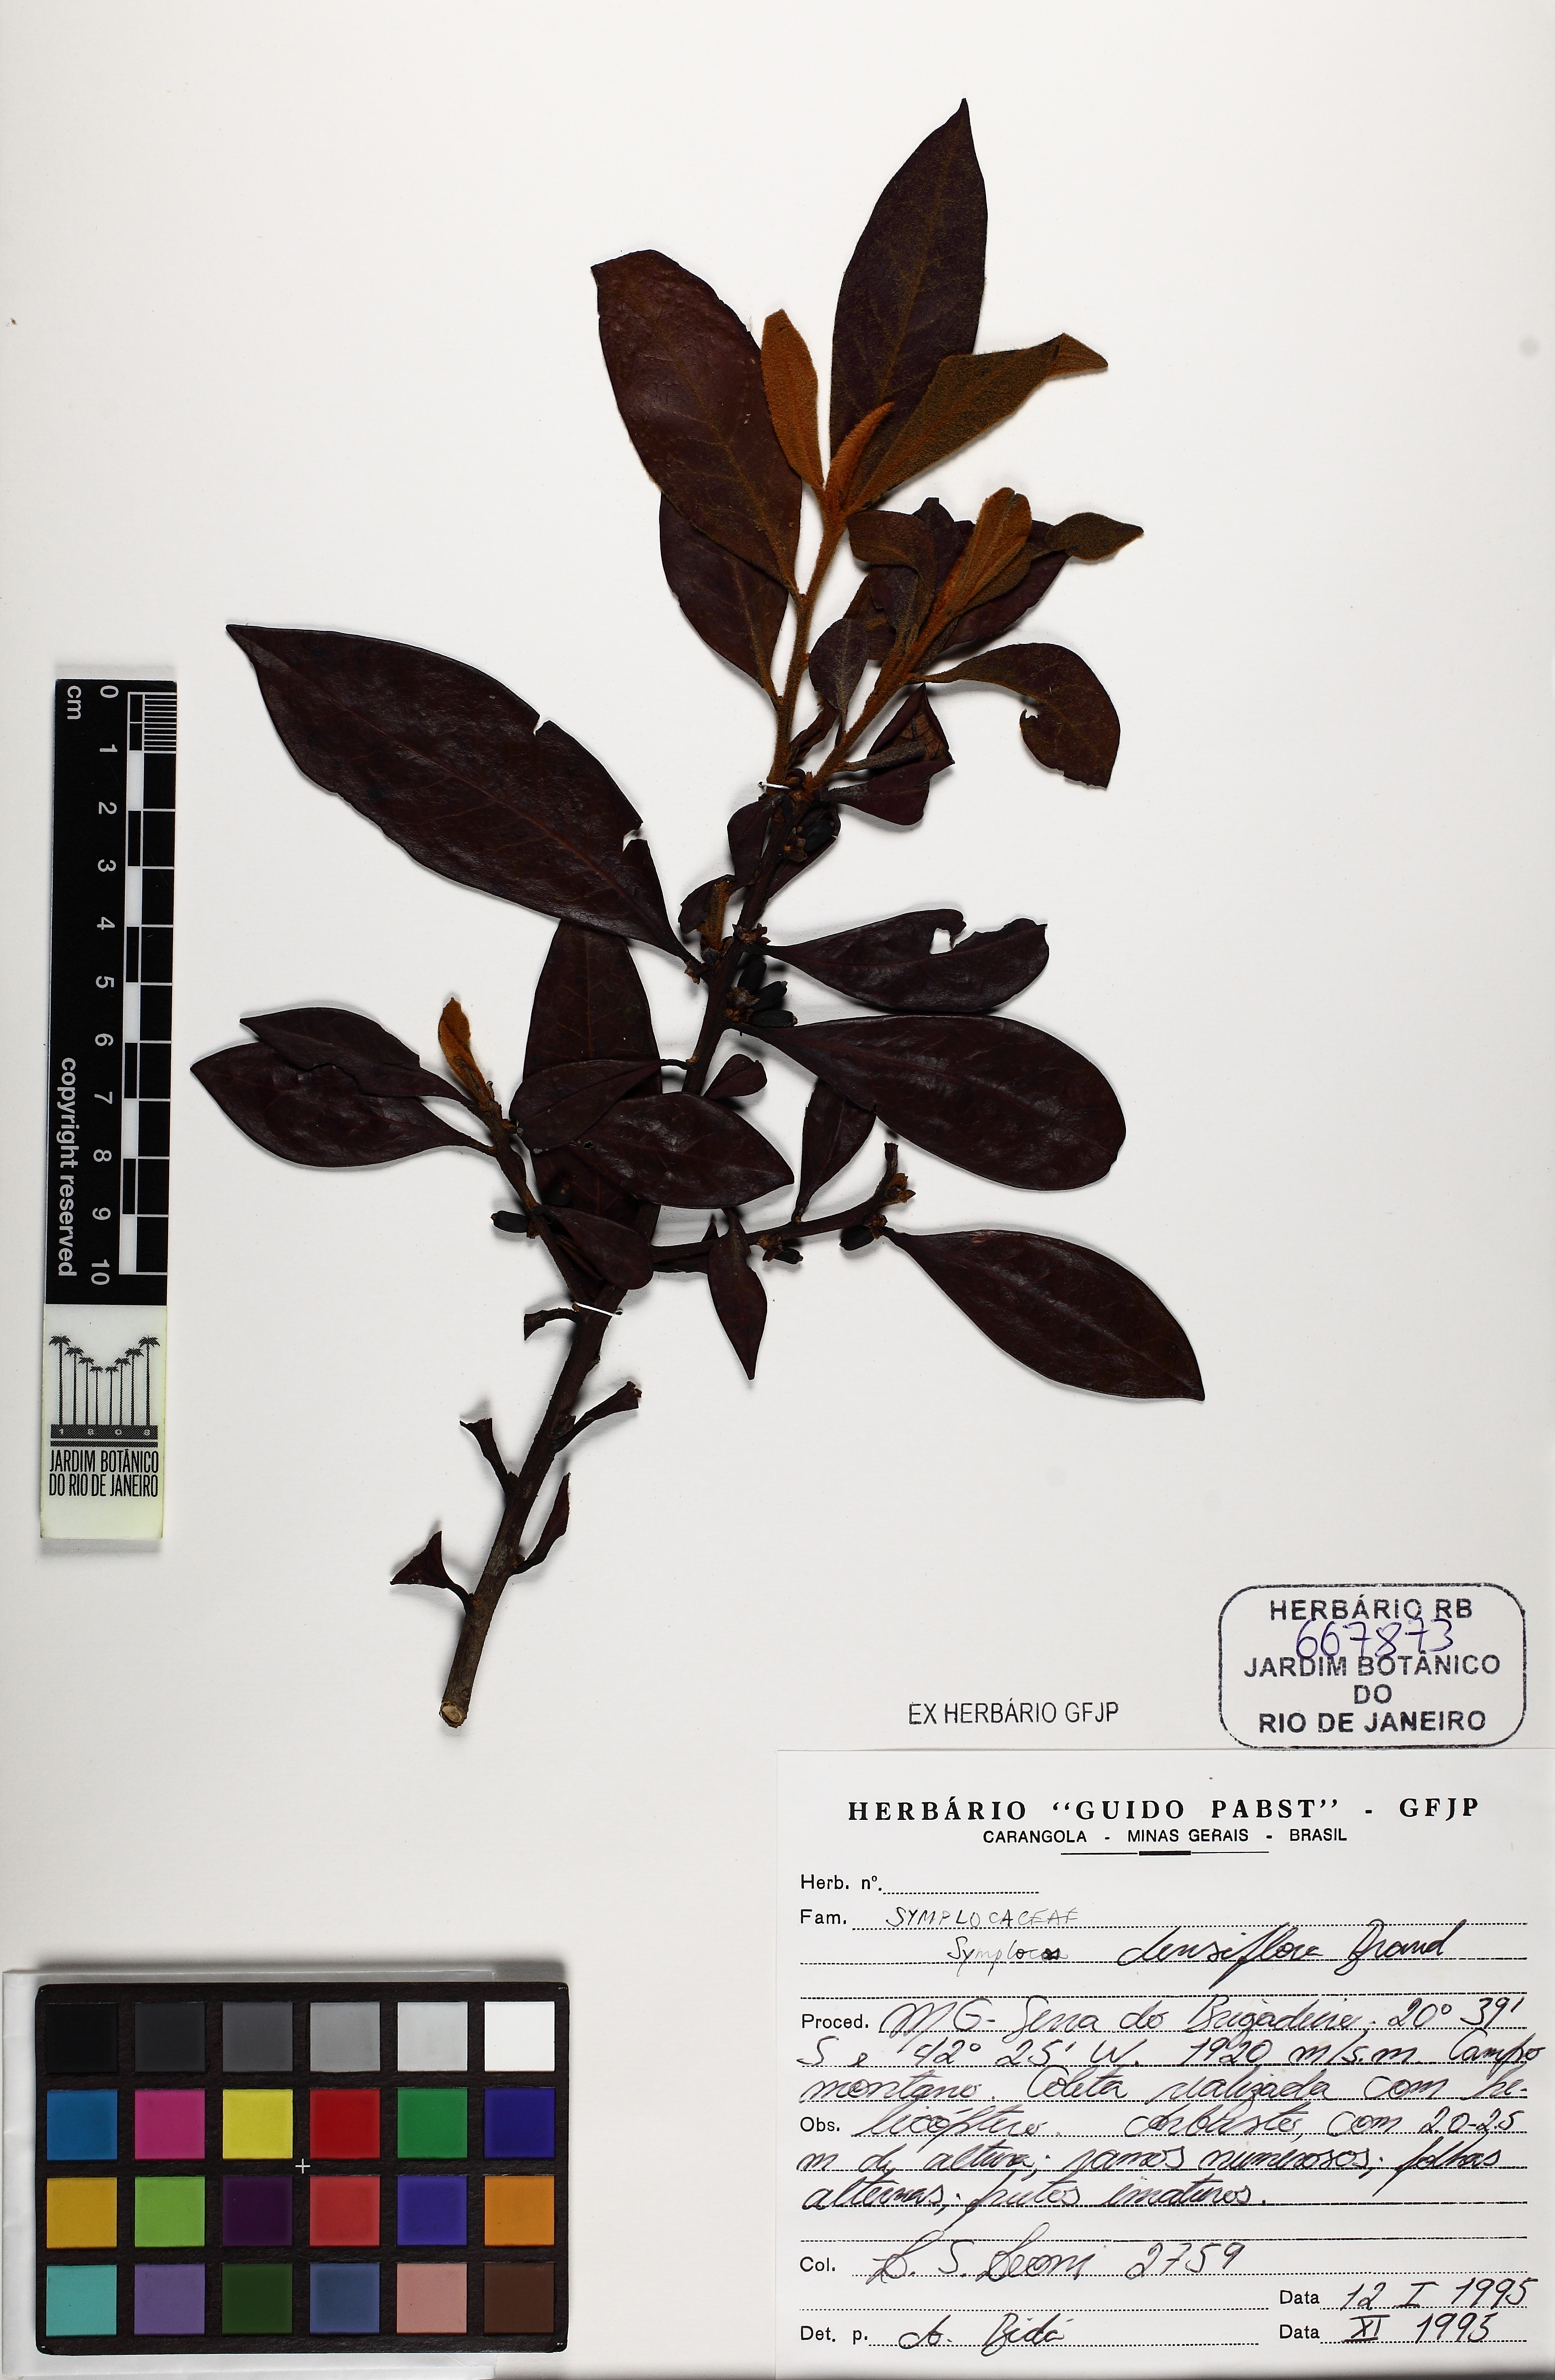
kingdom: Plantae
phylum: Tracheophyta
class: Magnoliopsida
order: Ericales
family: Symplocaceae
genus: Symplocos
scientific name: Symplocos falcata
